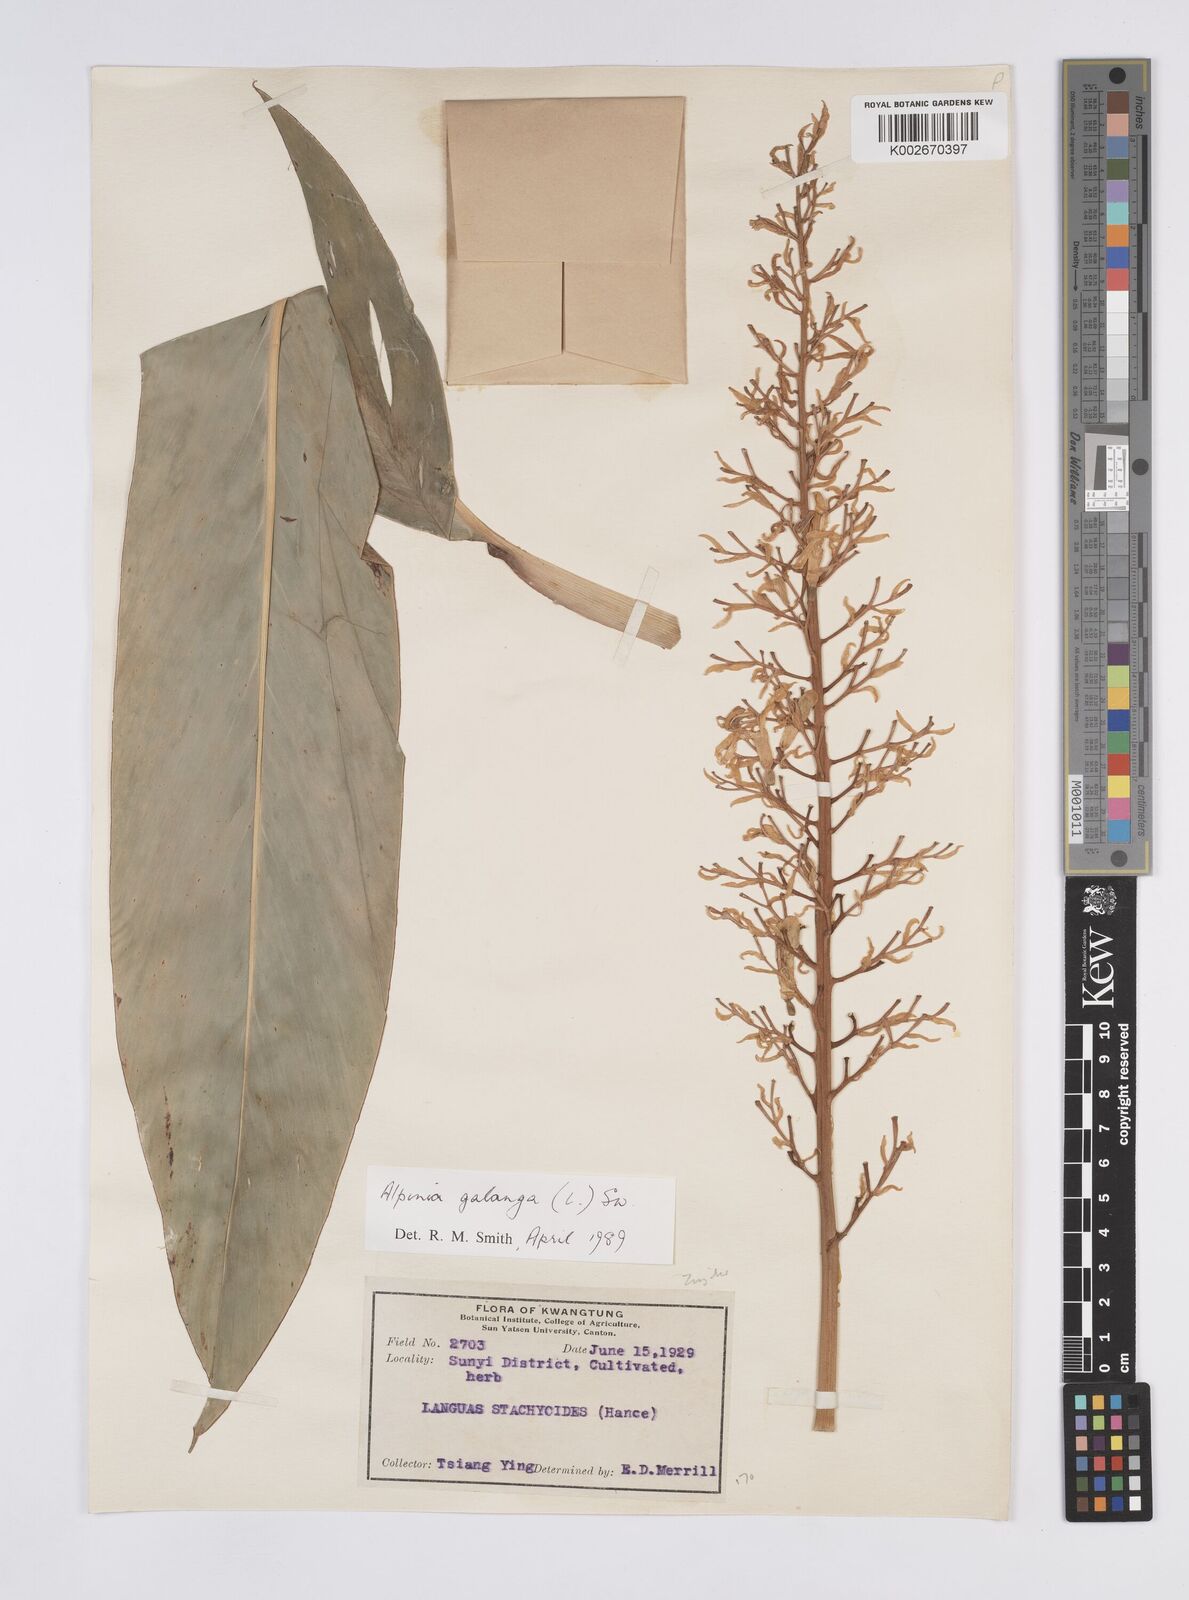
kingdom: Plantae
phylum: Tracheophyta
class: Liliopsida
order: Zingiberales
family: Zingiberaceae
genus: Alpinia
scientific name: Alpinia galanga
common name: Siamese-ginger
